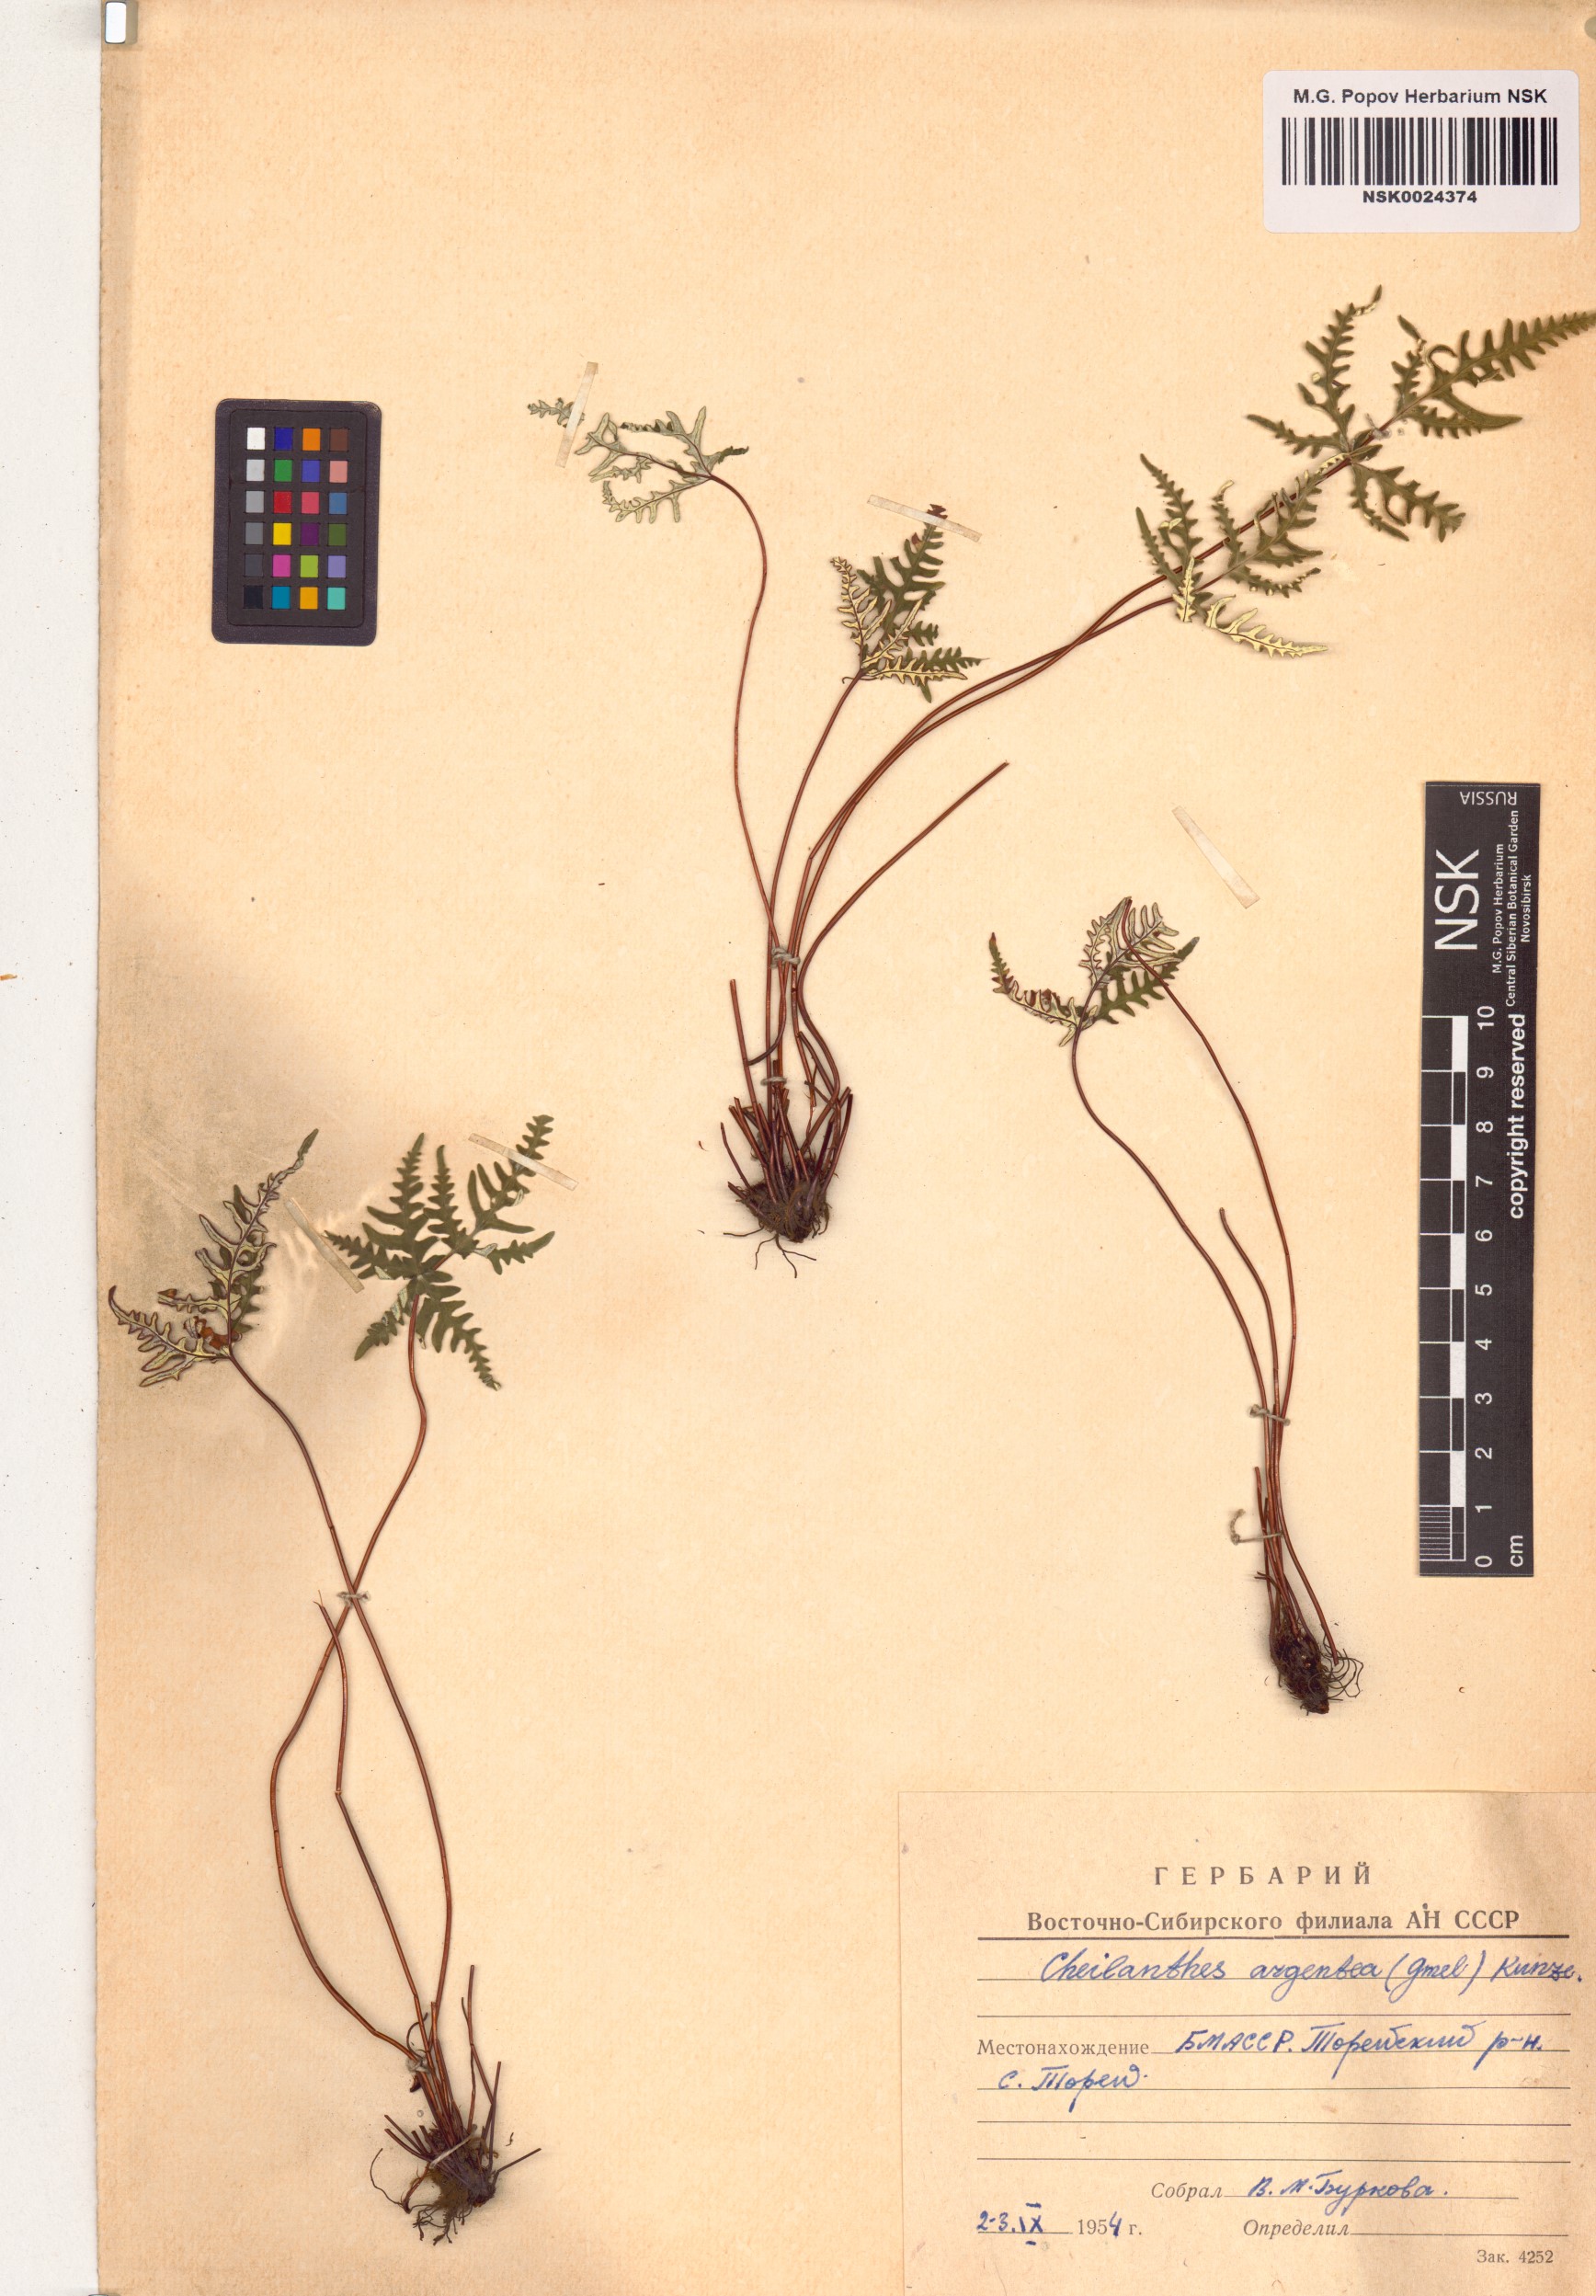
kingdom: Plantae
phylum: Tracheophyta
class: Polypodiopsida
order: Polypodiales
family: Pteridaceae
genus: Aleuritopteris
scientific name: Aleuritopteris argentea
